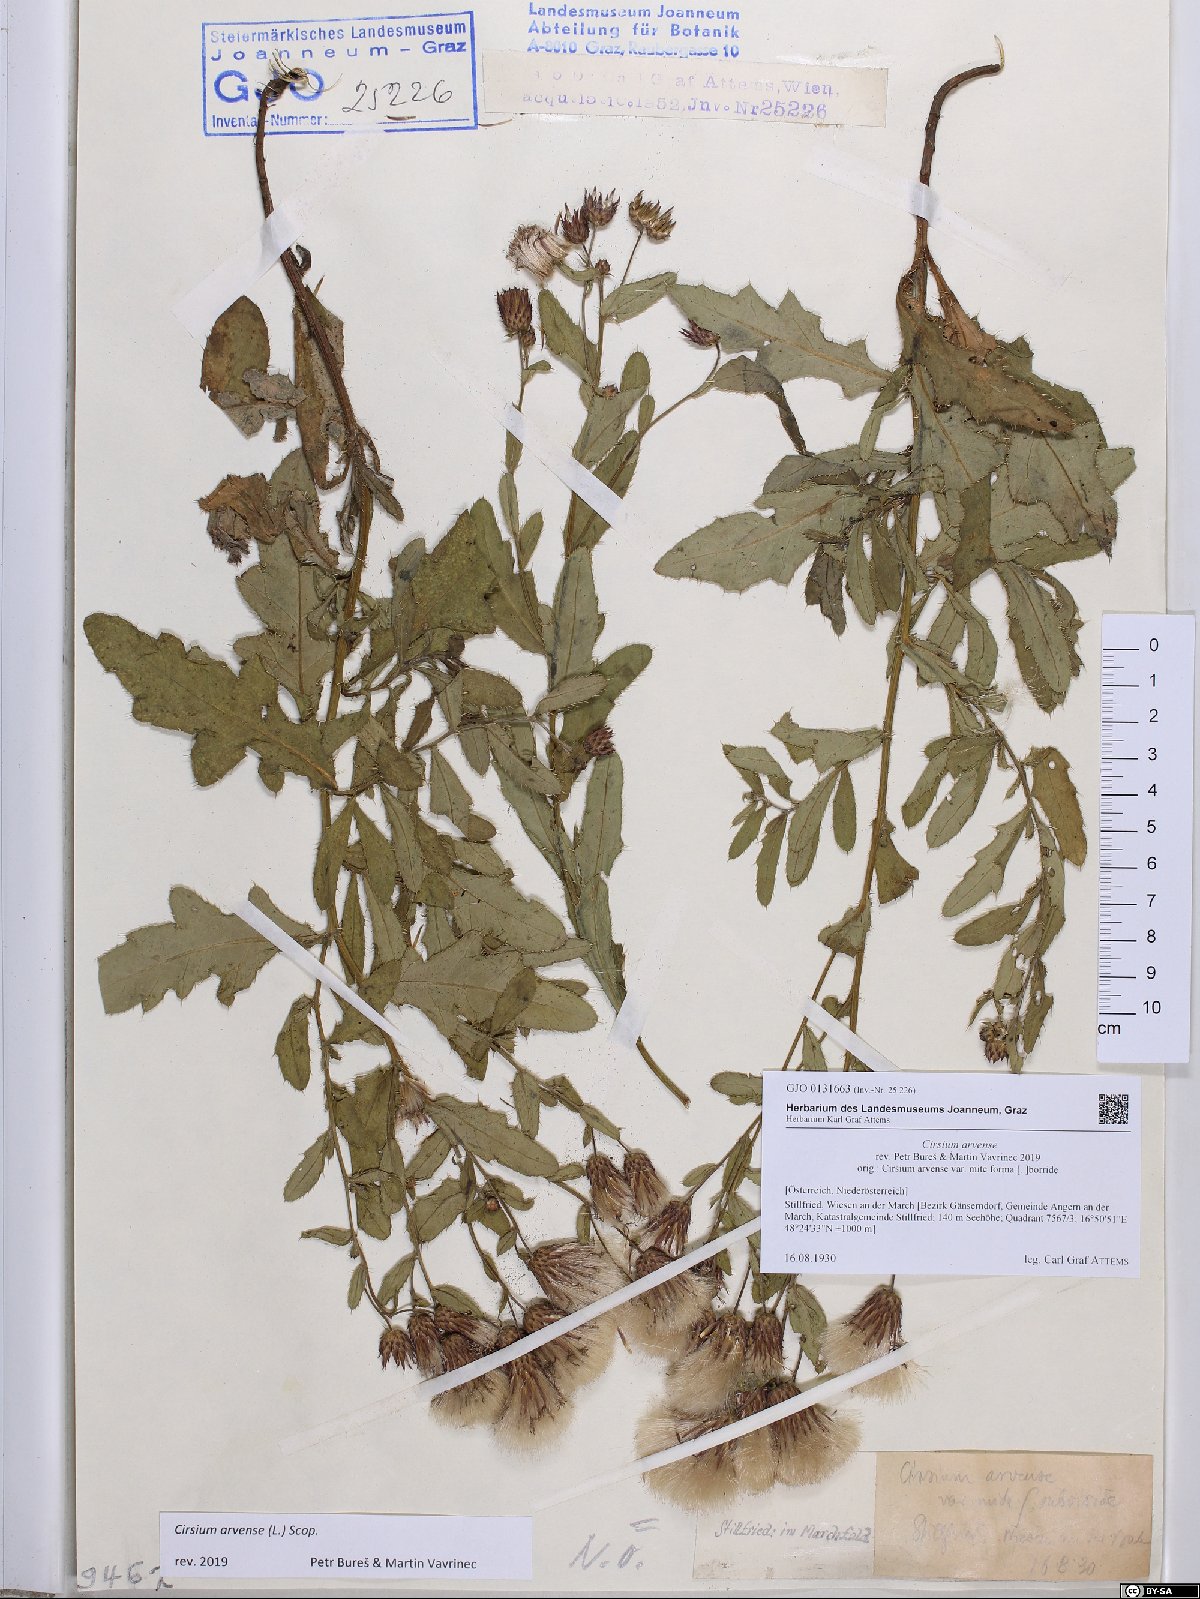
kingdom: Plantae
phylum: Tracheophyta
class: Magnoliopsida
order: Asterales
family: Asteraceae
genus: Cirsium
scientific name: Cirsium arvense
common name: Creeping thistle
